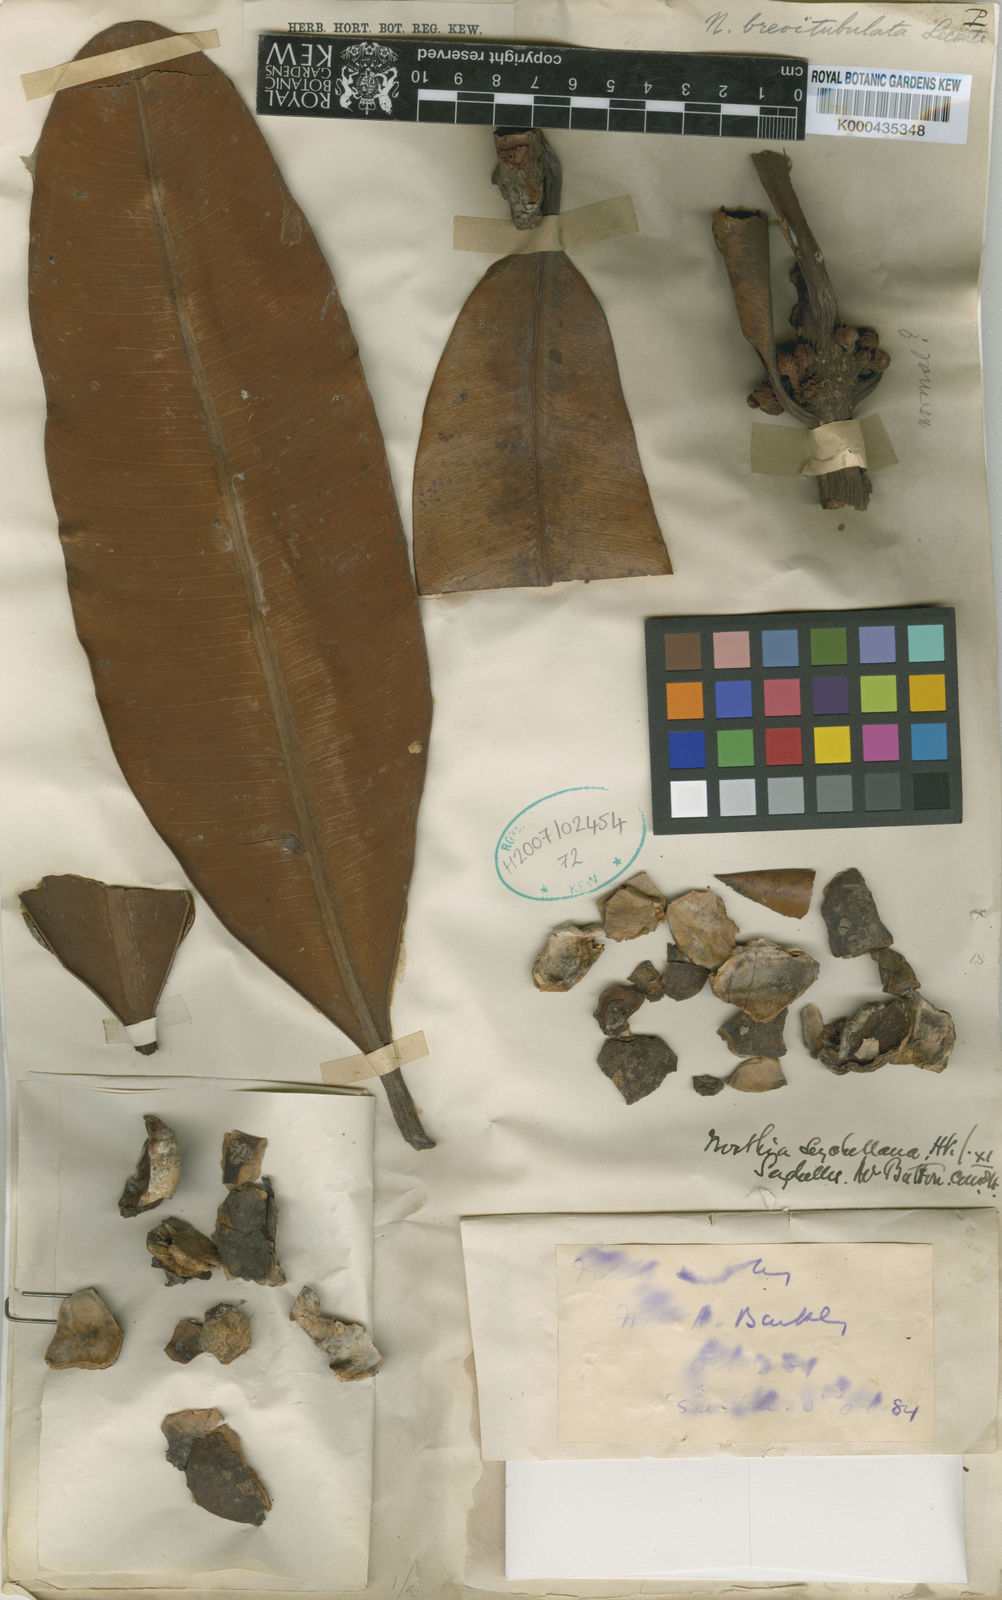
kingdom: Plantae
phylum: Tracheophyta
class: Magnoliopsida
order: Ericales
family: Sapotaceae
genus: Northia
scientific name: Northia seychellana
